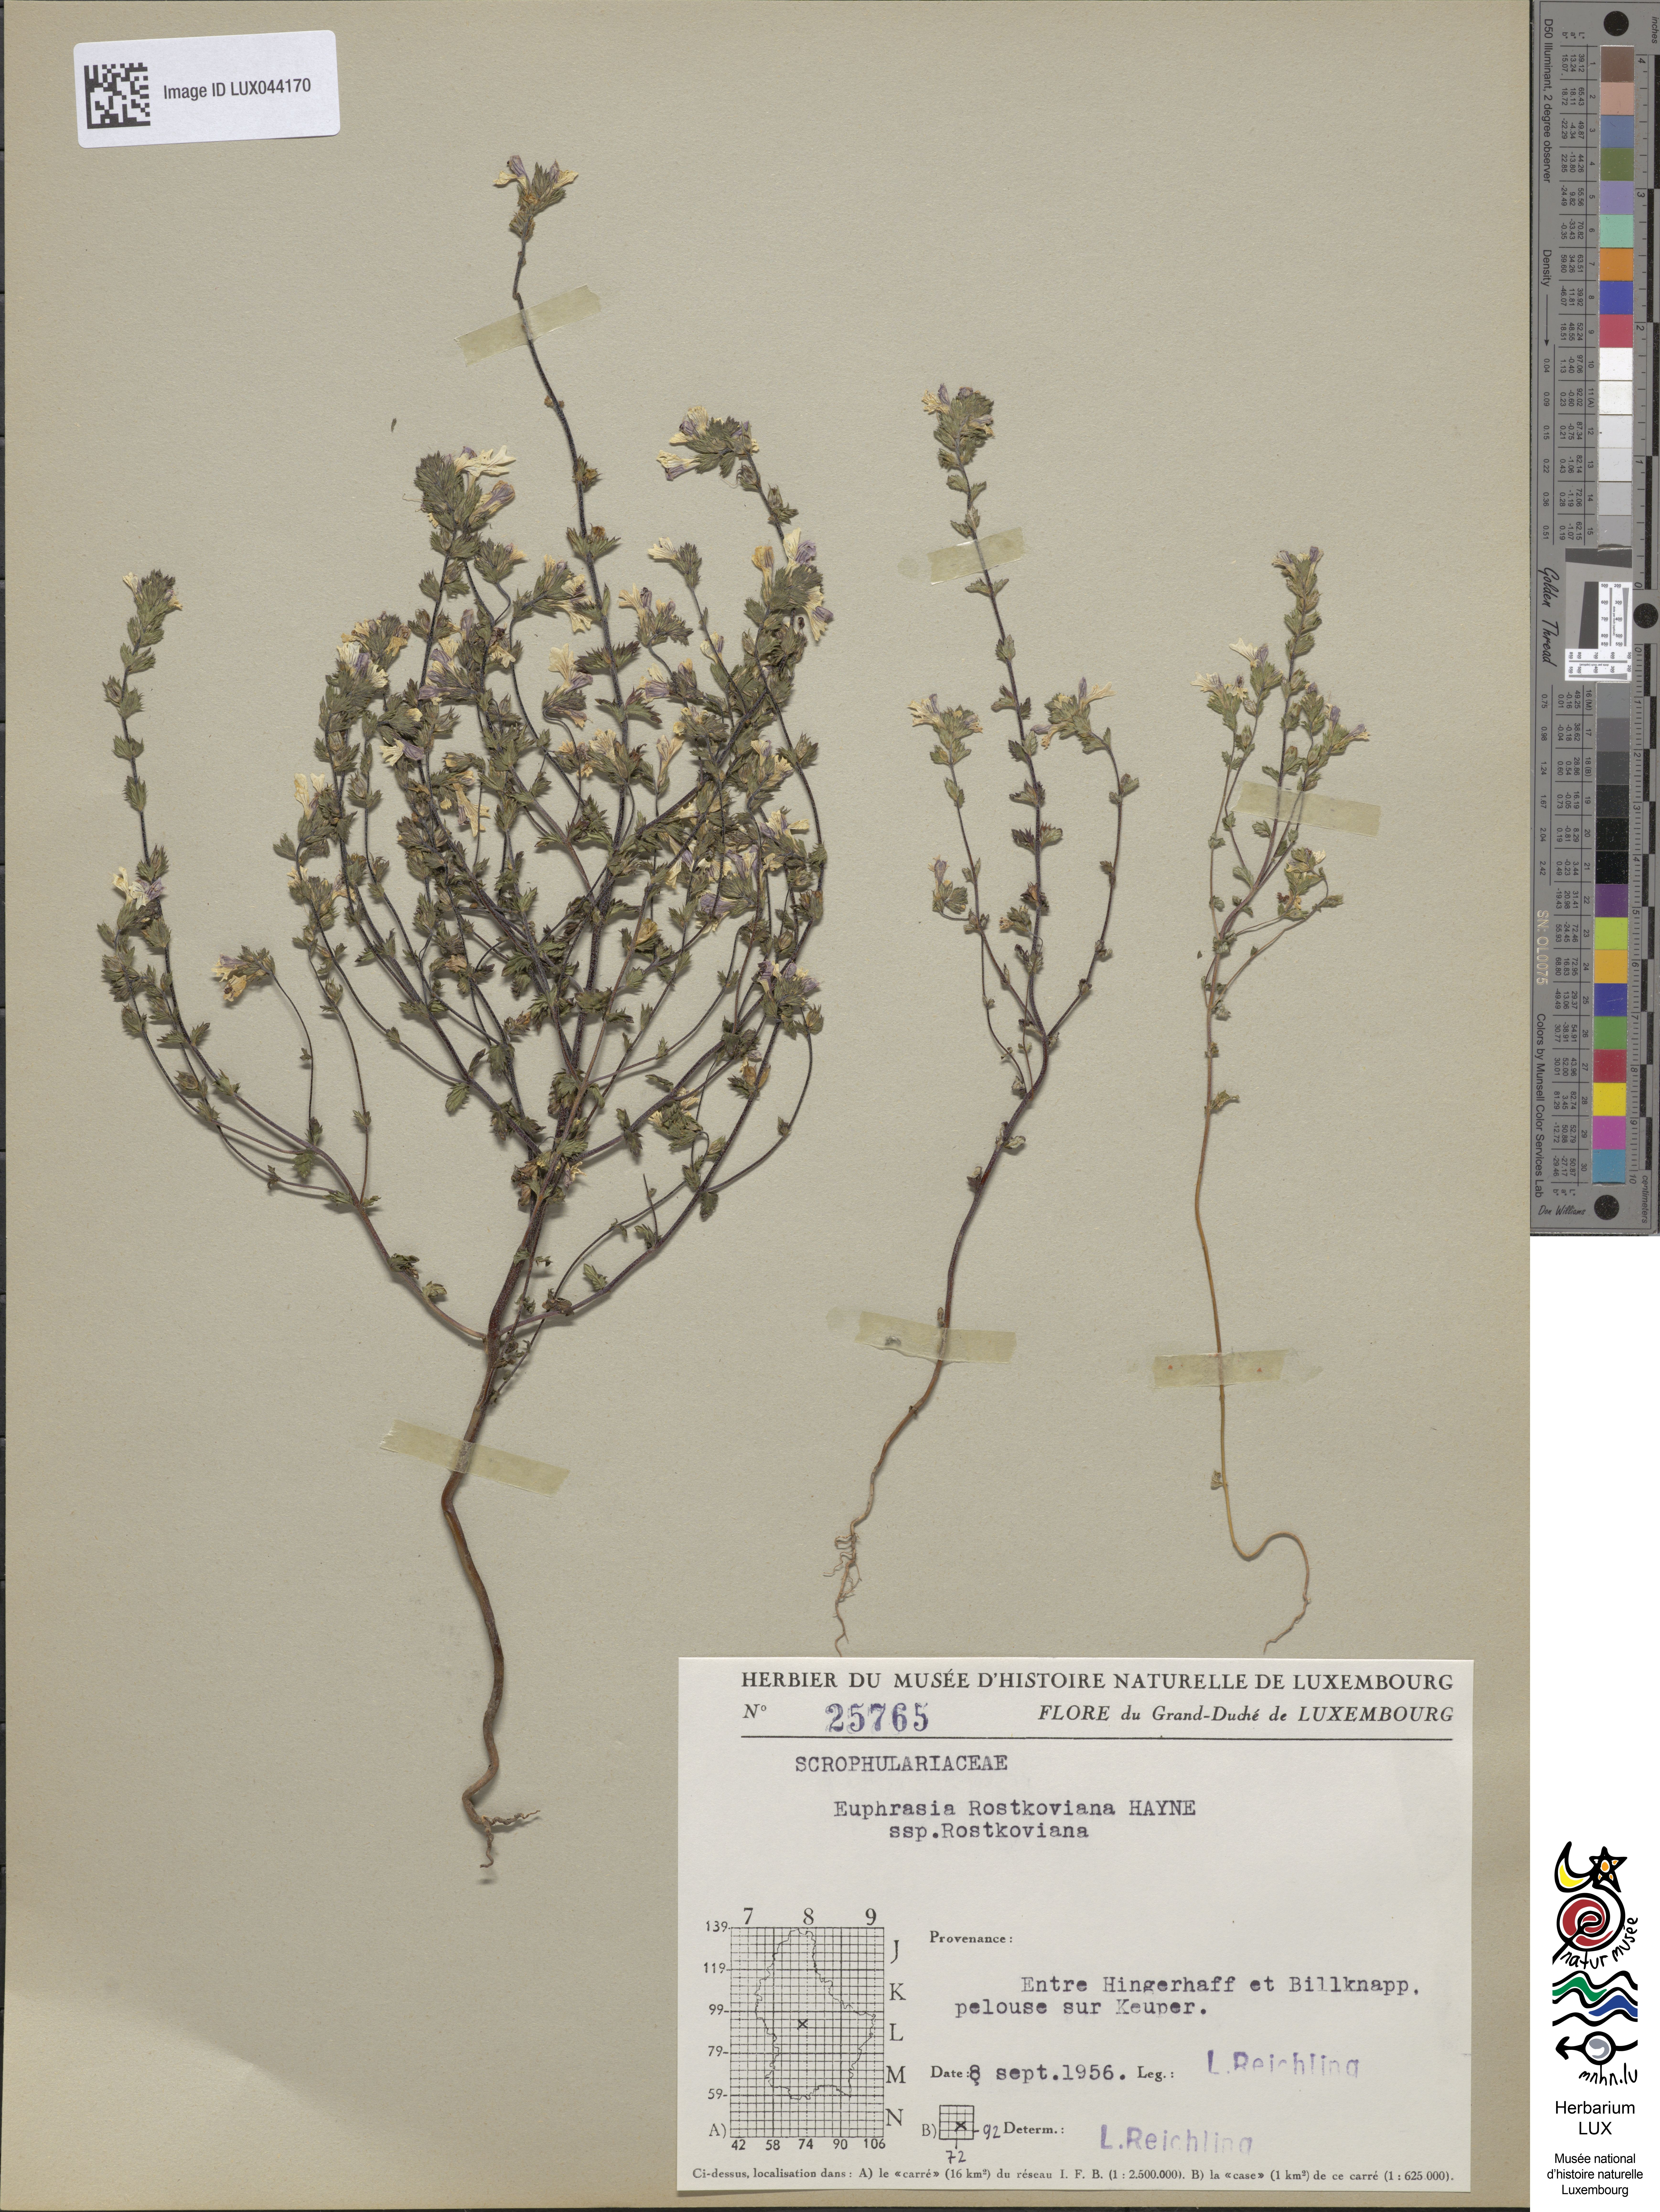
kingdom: Plantae
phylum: Tracheophyta
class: Magnoliopsida
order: Lamiales
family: Orobanchaceae
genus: Euphrasia
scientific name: Euphrasia officinalis
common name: Eyebright
